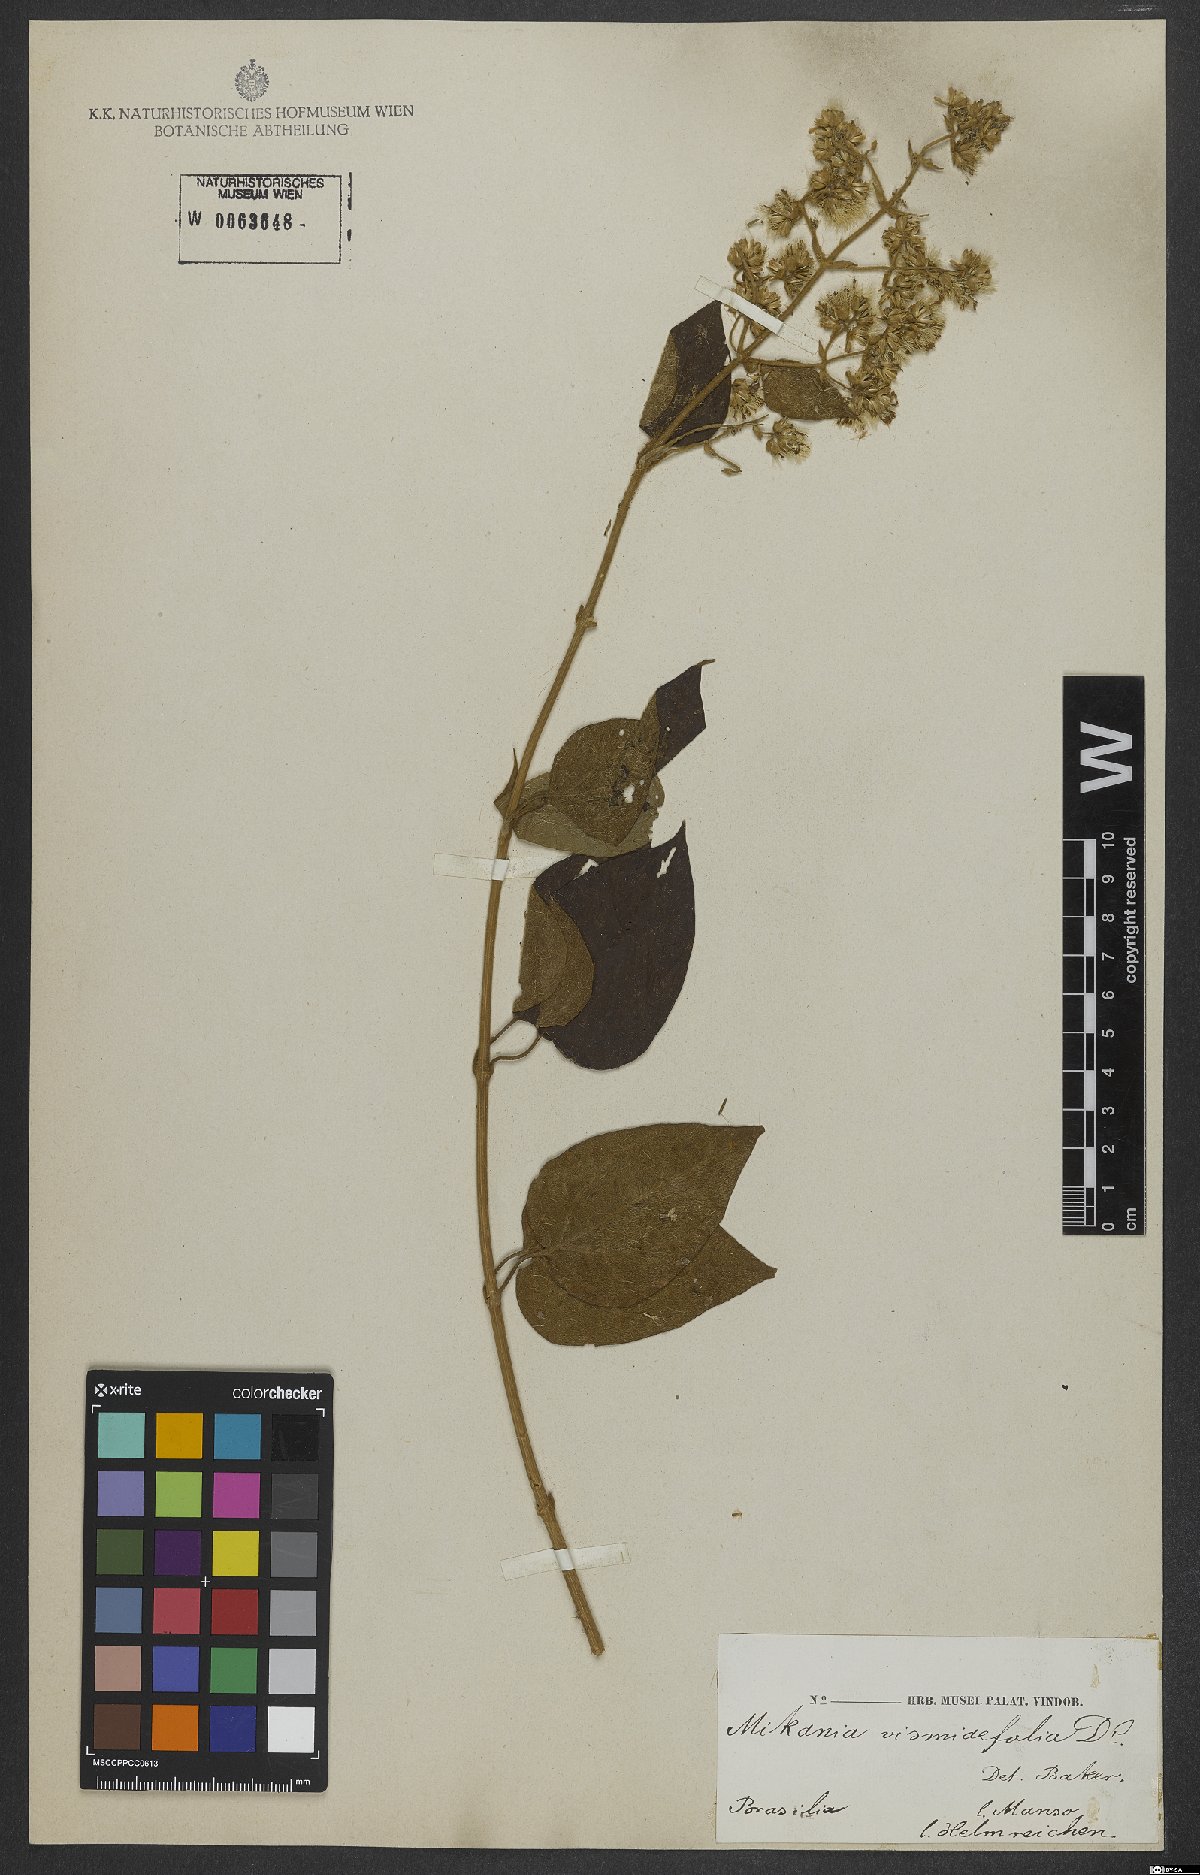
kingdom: Plantae
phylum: Tracheophyta
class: Magnoliopsida
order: Asterales
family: Asteraceae
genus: Mikania
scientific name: Mikania vismiifolia
